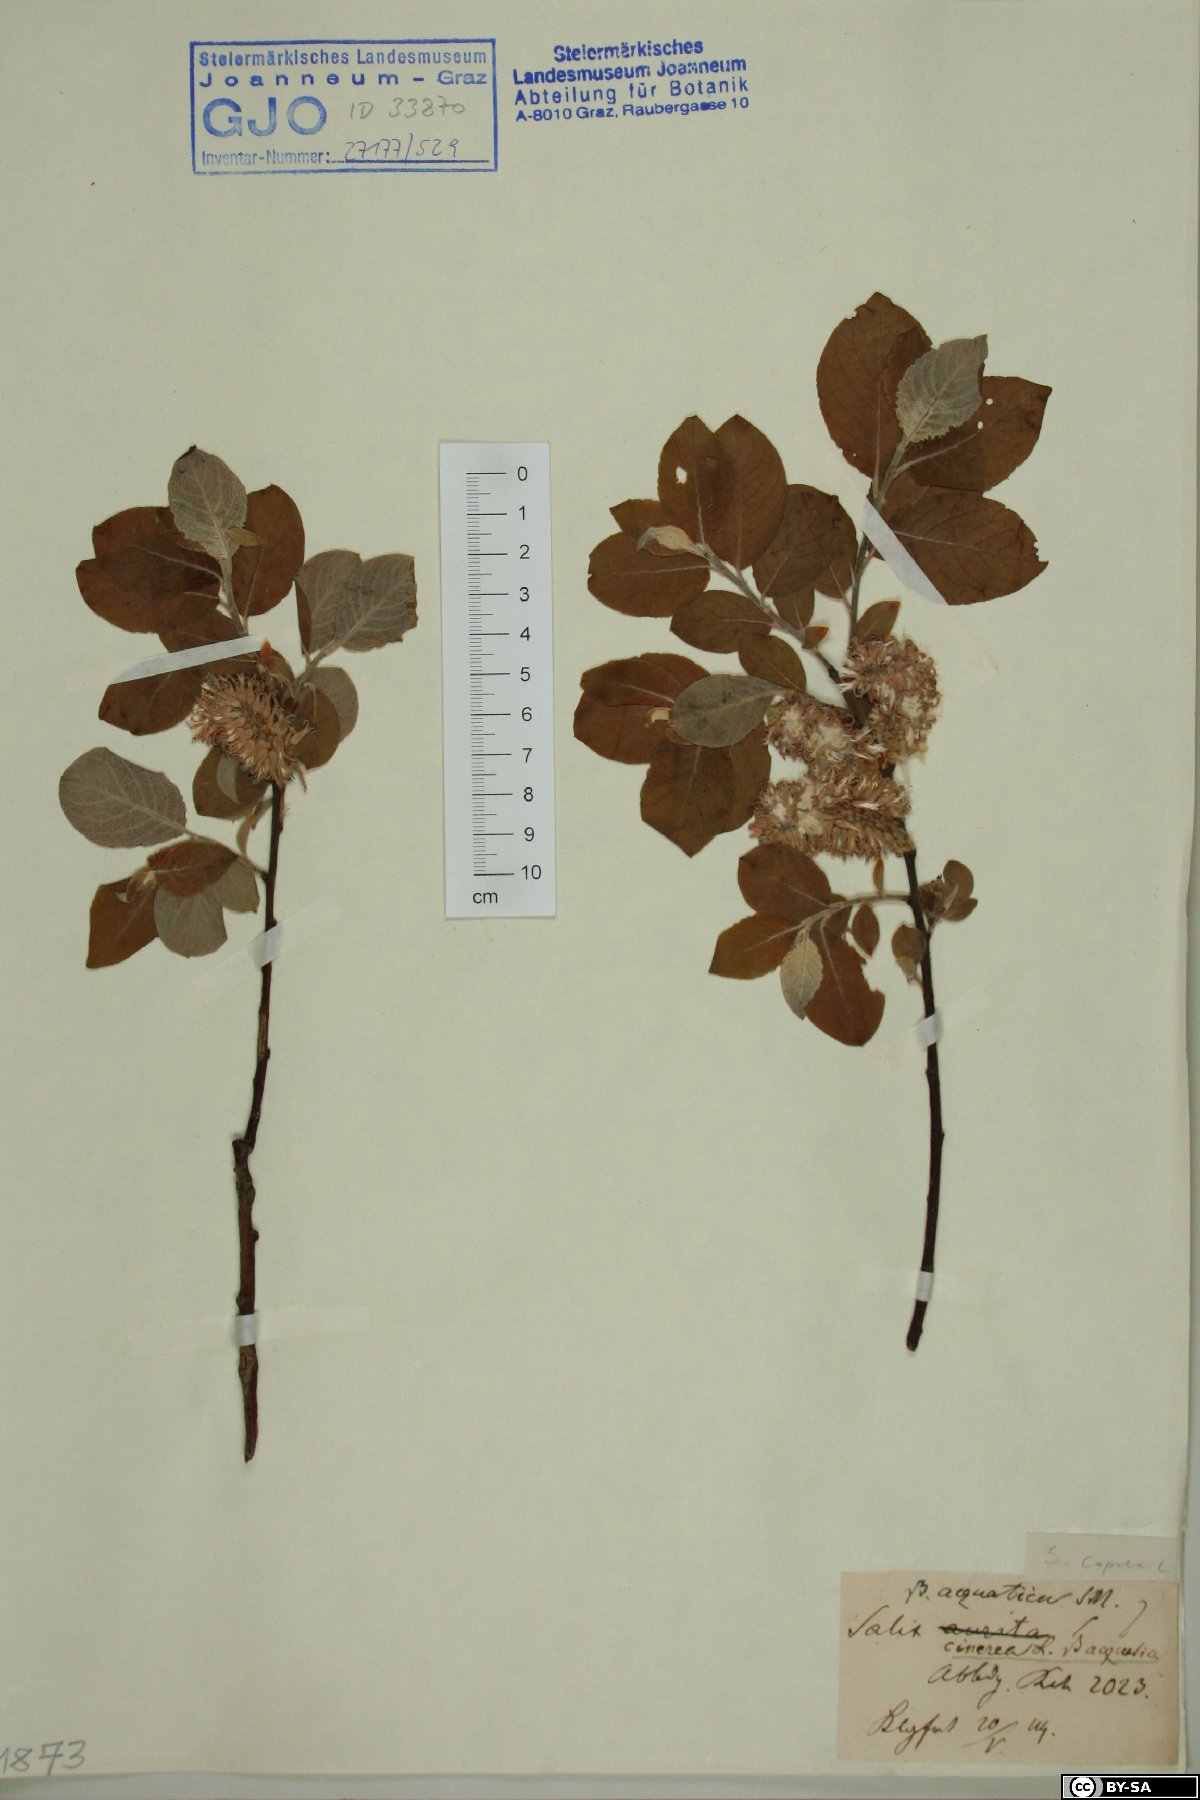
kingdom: Plantae
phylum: Tracheophyta
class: Magnoliopsida
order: Malpighiales
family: Salicaceae
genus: Salix
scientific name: Salix caprea
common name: Goat willow
